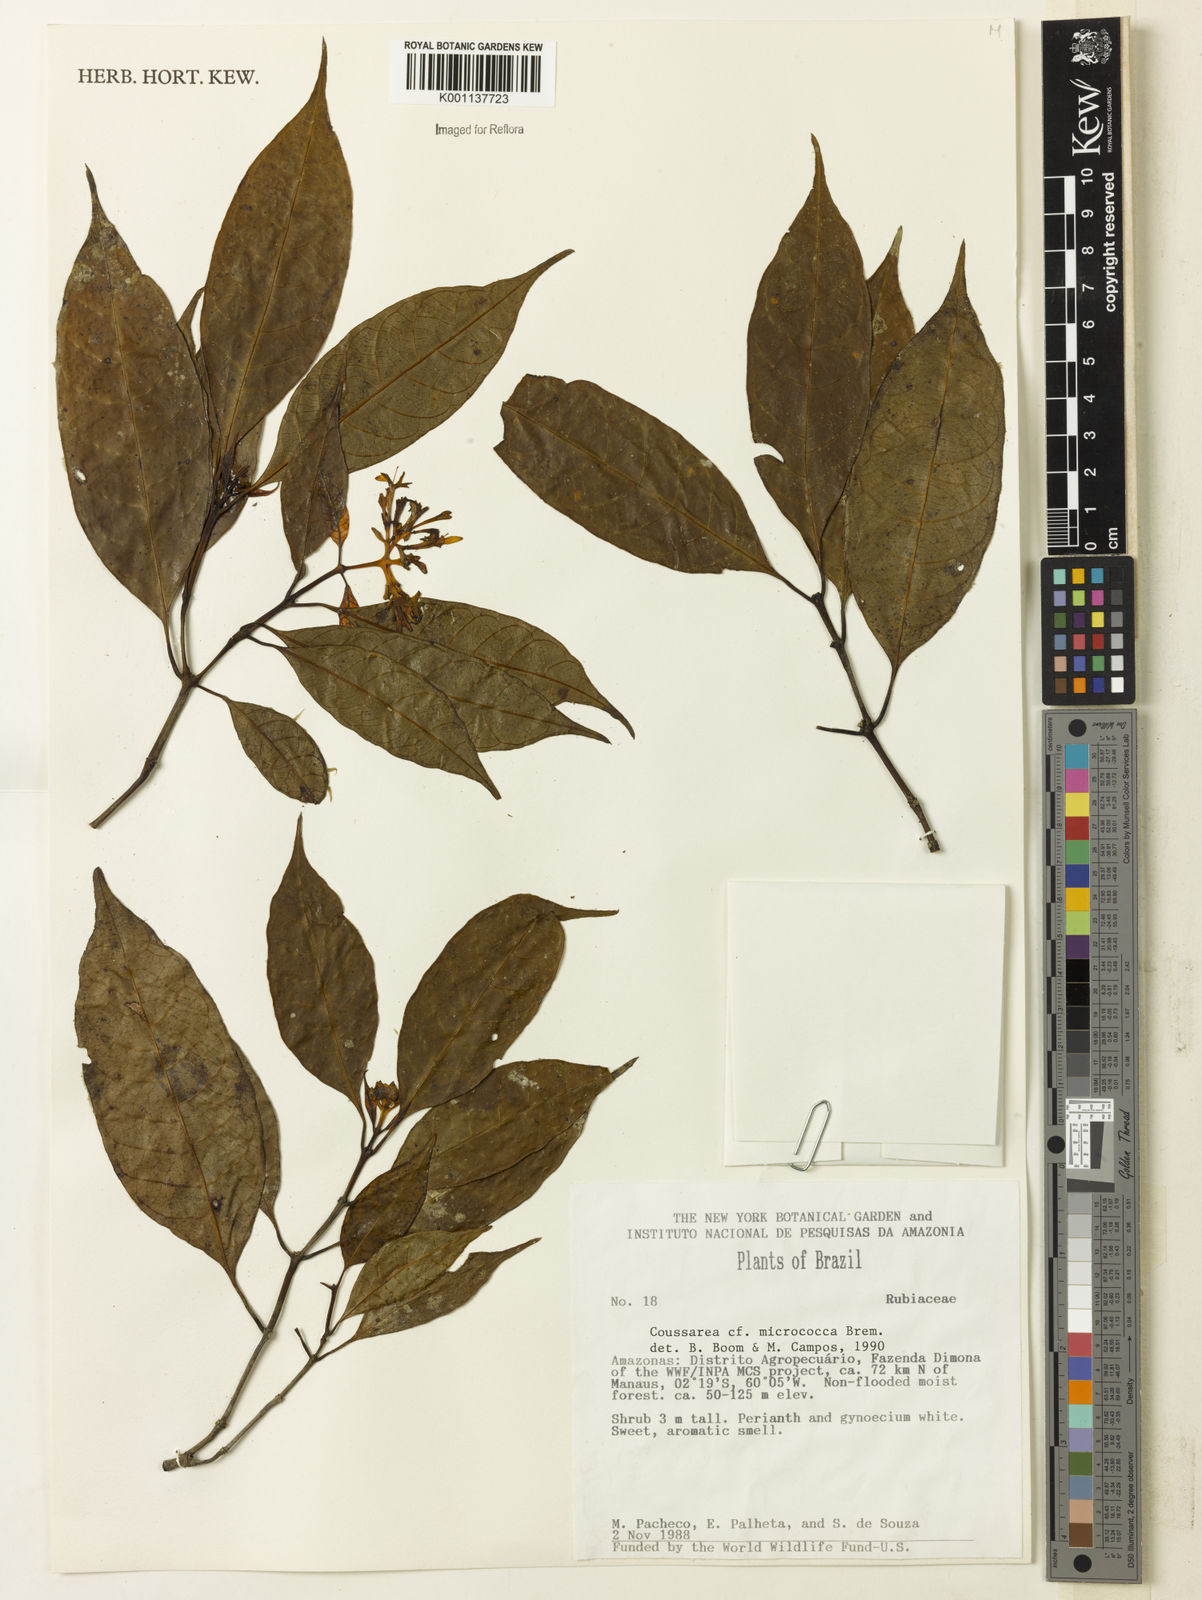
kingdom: Plantae
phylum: Tracheophyta
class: Magnoliopsida
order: Gentianales
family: Rubiaceae
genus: Coussarea
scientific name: Coussarea micrococca
